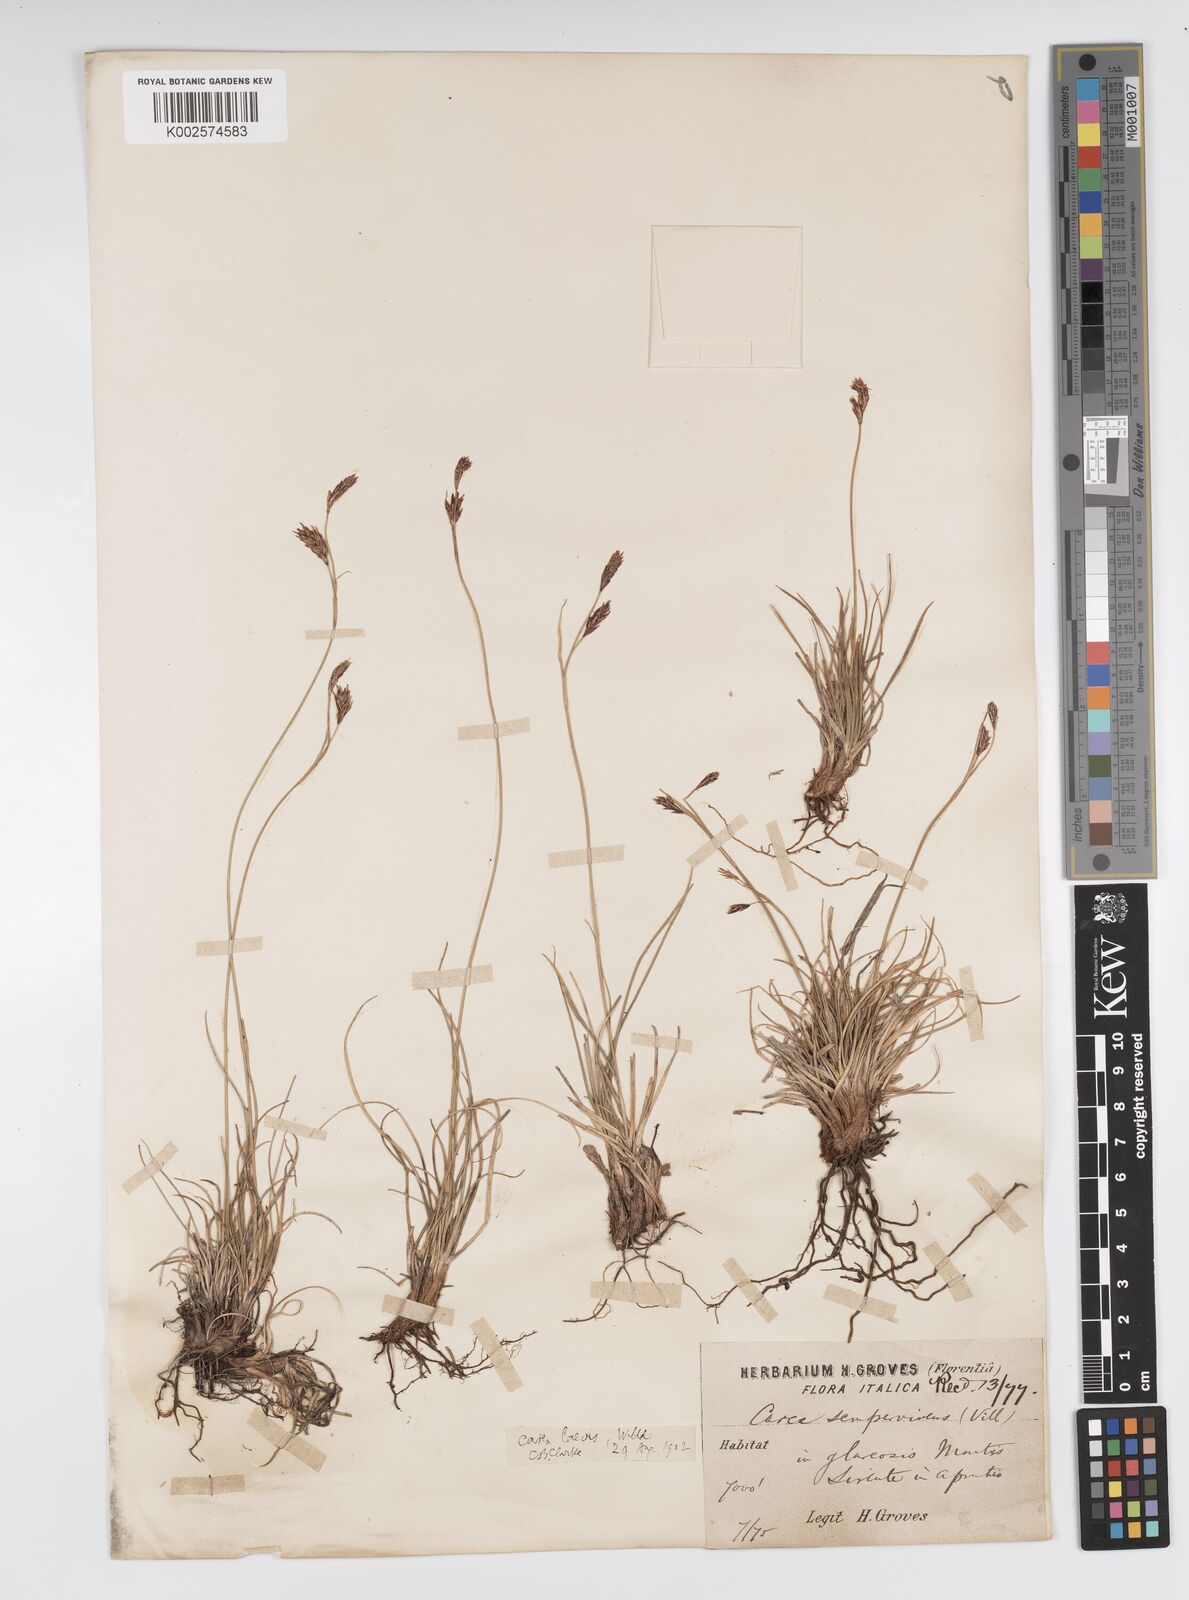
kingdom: Plantae
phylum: Tracheophyta
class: Liliopsida
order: Poales
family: Cyperaceae
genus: Carex
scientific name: Carex kitaibeliana
